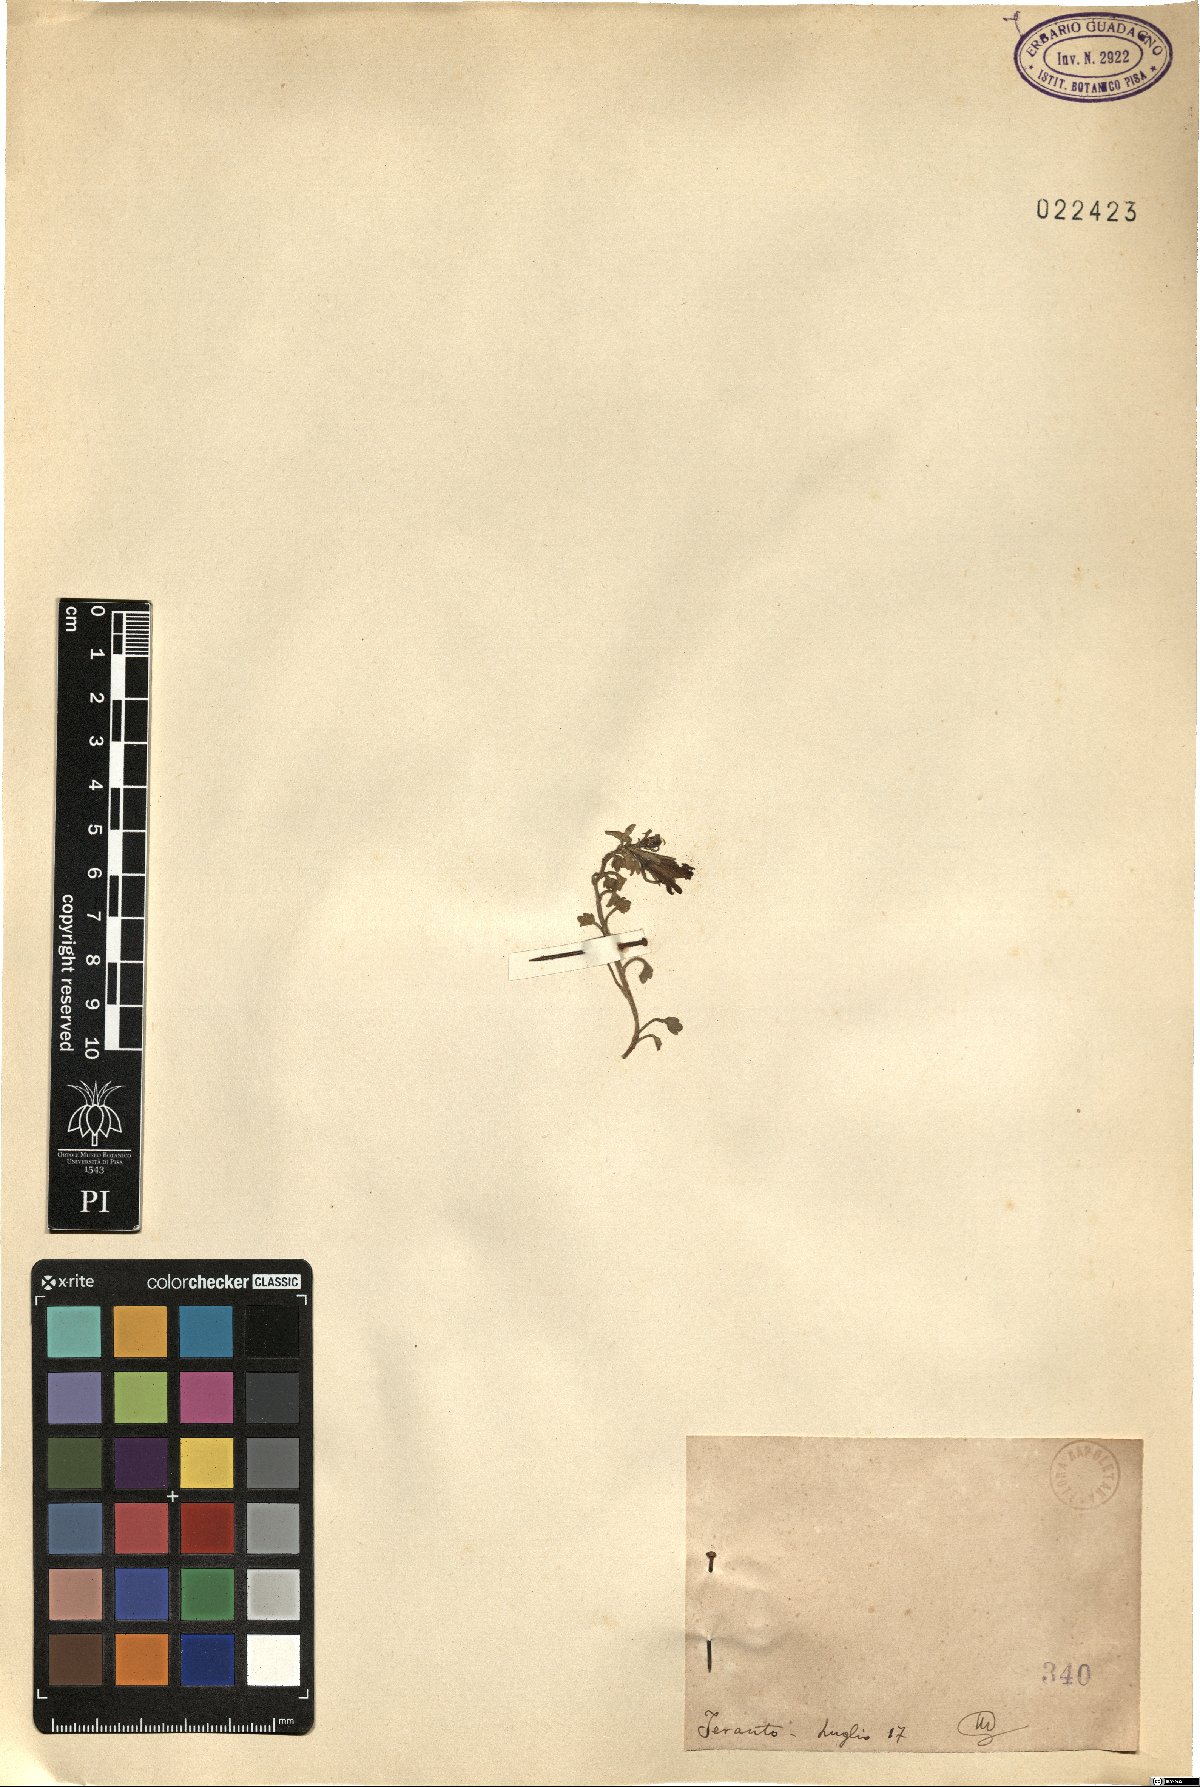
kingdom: Plantae
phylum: Tracheophyta
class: Magnoliopsida
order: Asterales
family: Campanulaceae
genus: Campanula
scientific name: Campanula
